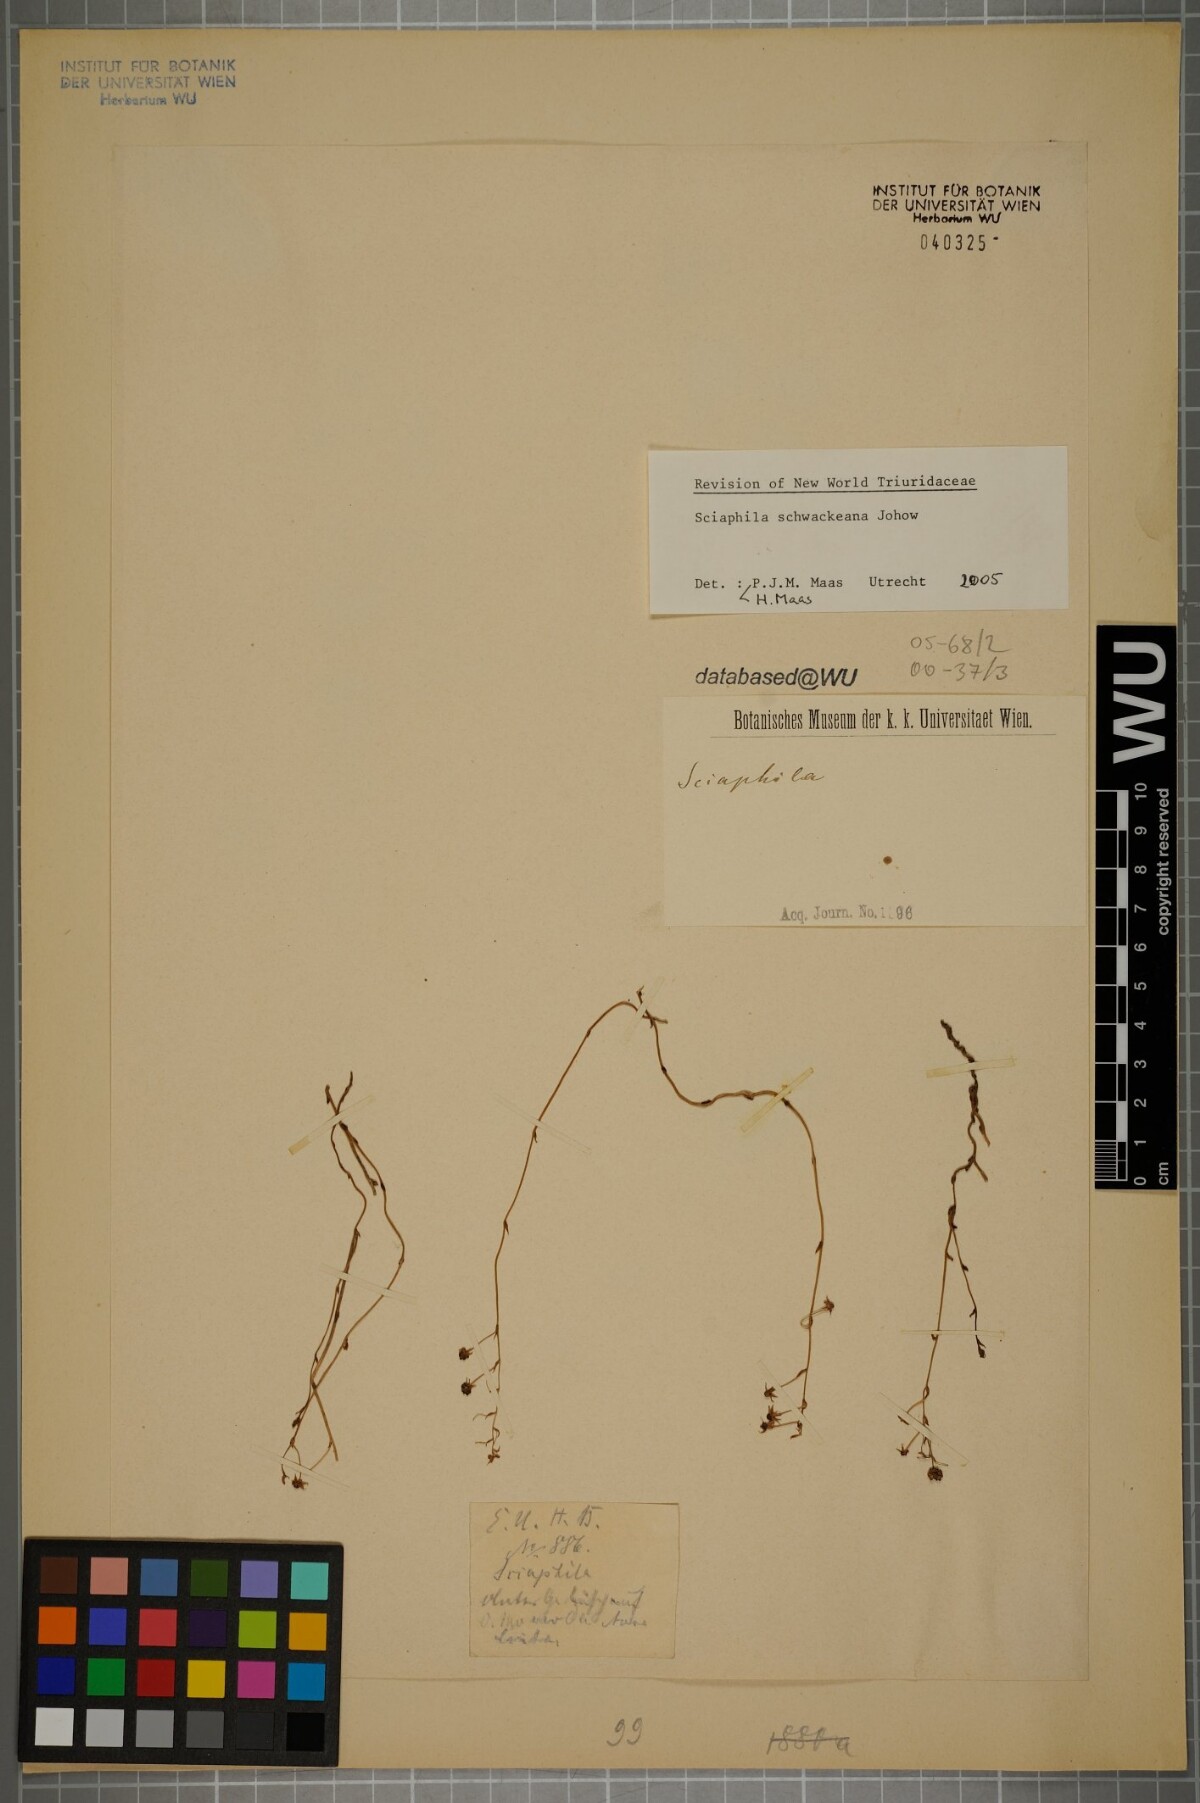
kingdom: Plantae
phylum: Tracheophyta
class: Liliopsida
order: Pandanales
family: Triuridaceae
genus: Sciaphila
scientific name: Sciaphila schwackeana
